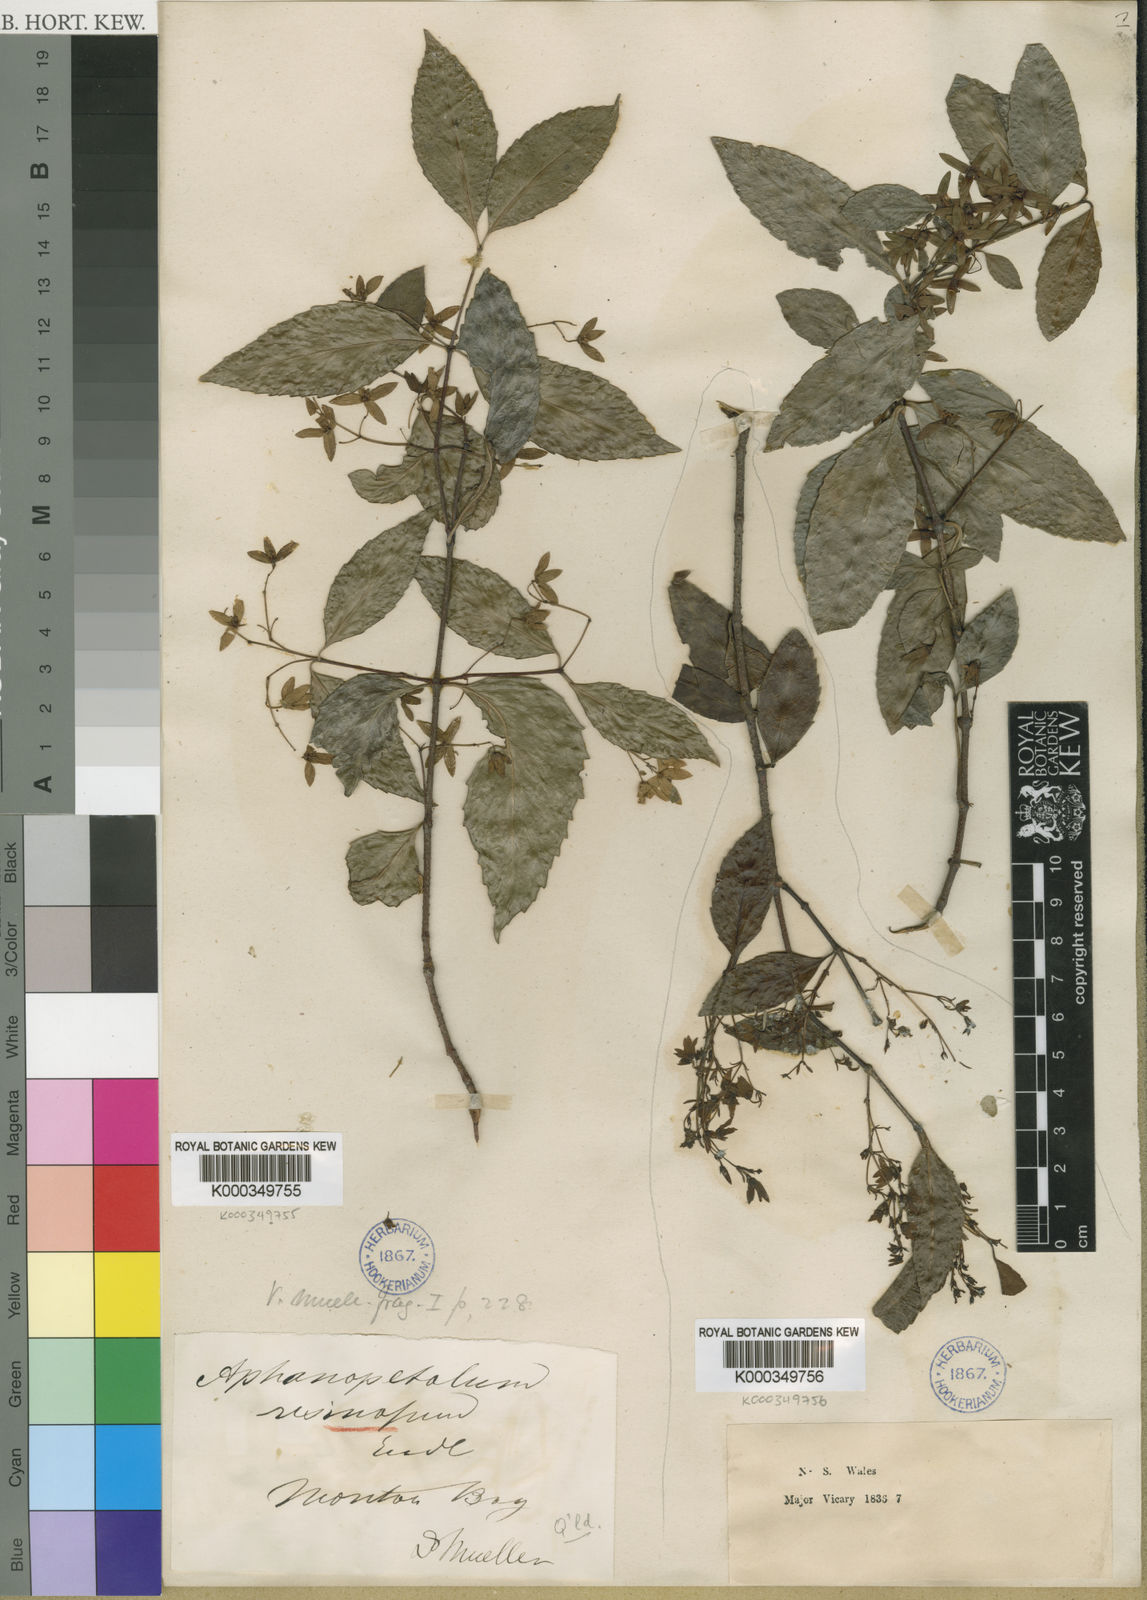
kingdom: Plantae
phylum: Tracheophyta
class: Magnoliopsida
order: Saxifragales
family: Aphanopetalaceae
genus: Aphanopetalum
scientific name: Aphanopetalum resinosum
